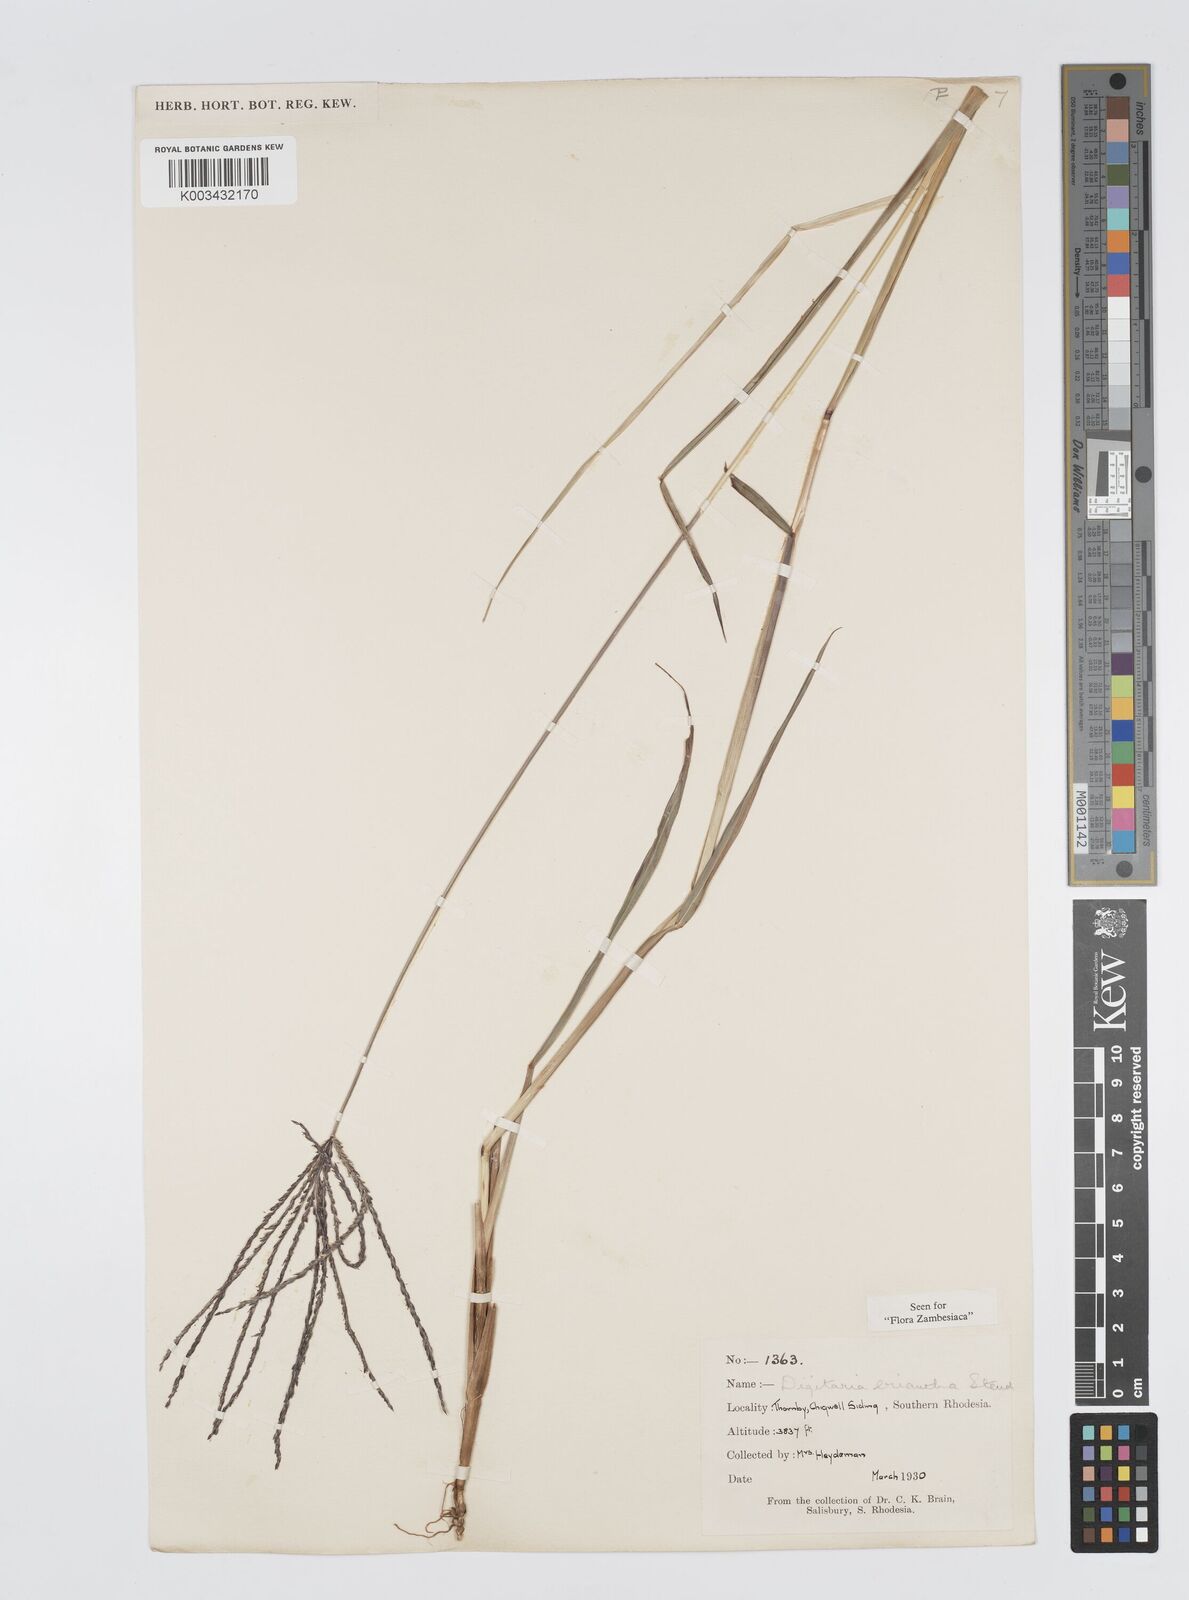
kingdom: Plantae
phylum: Tracheophyta
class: Liliopsida
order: Poales
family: Poaceae
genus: Digitaria
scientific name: Digitaria milanjiana
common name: Madagascar crabgrass
